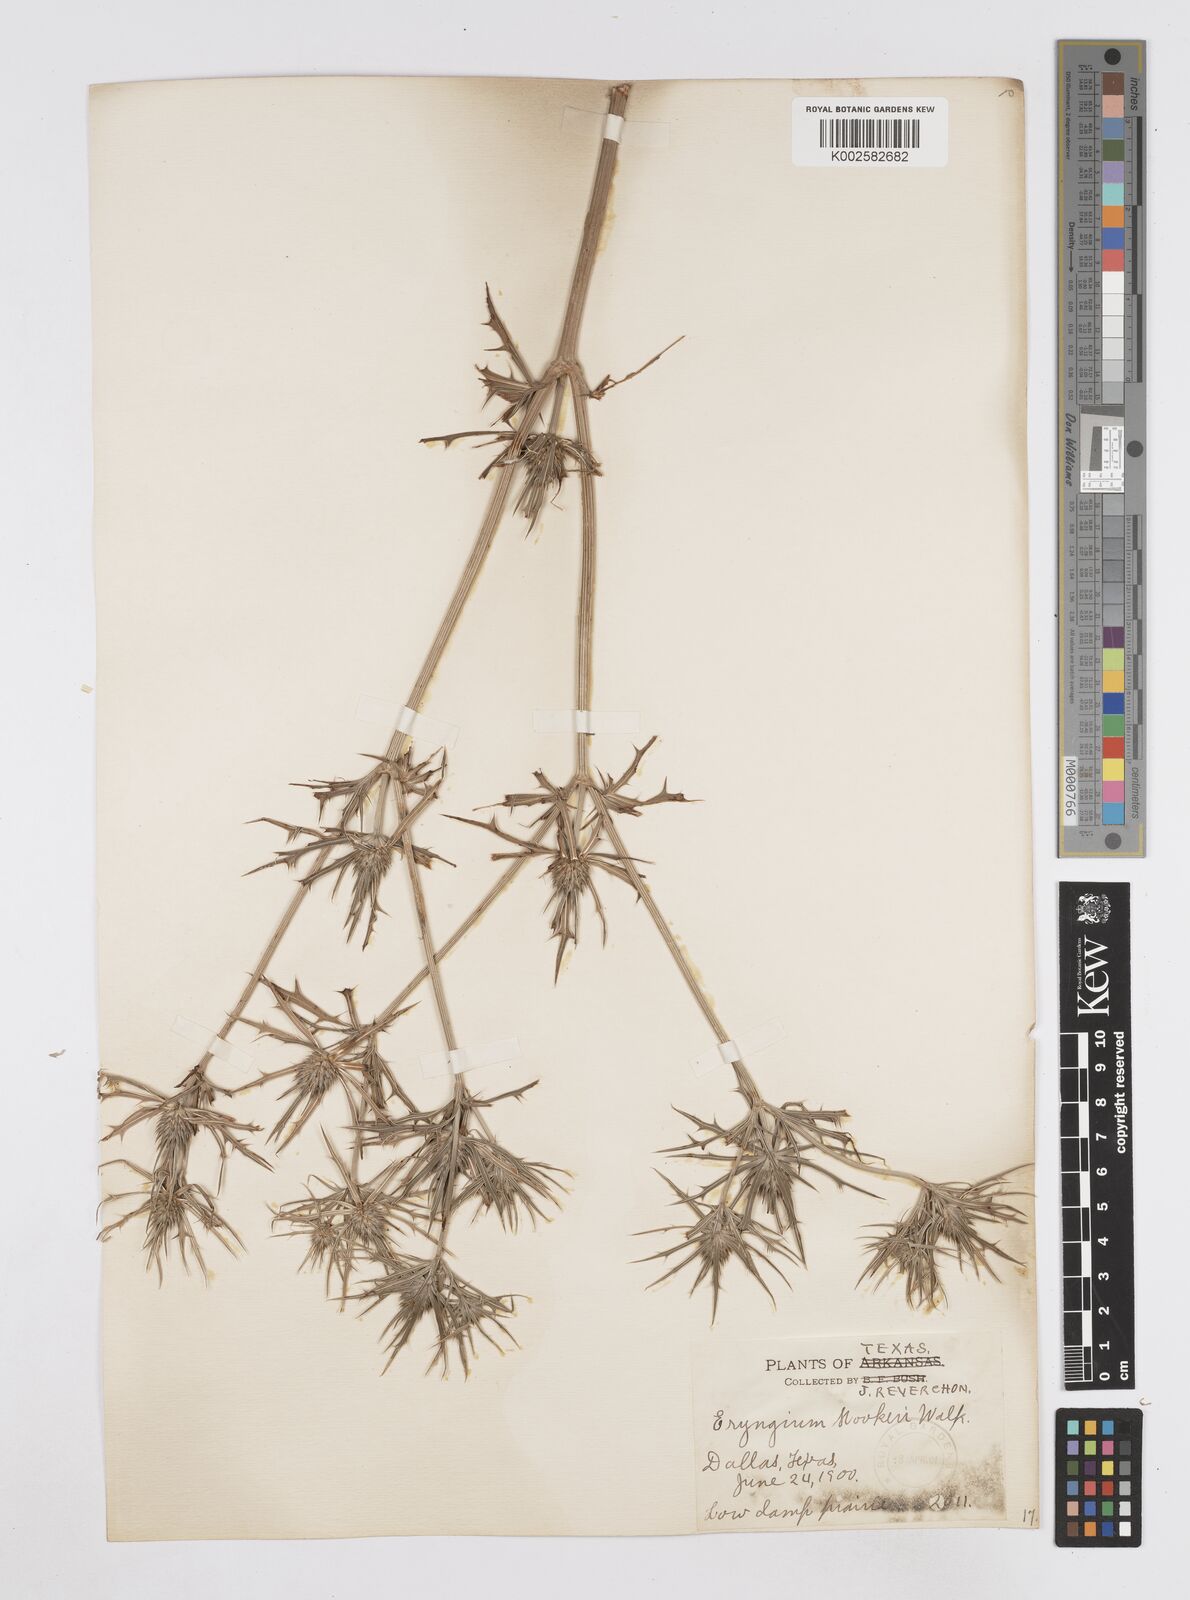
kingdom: Plantae
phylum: Tracheophyta
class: Magnoliopsida
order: Apiales
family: Apiaceae
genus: Eryngium
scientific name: Eryngium hookeri
